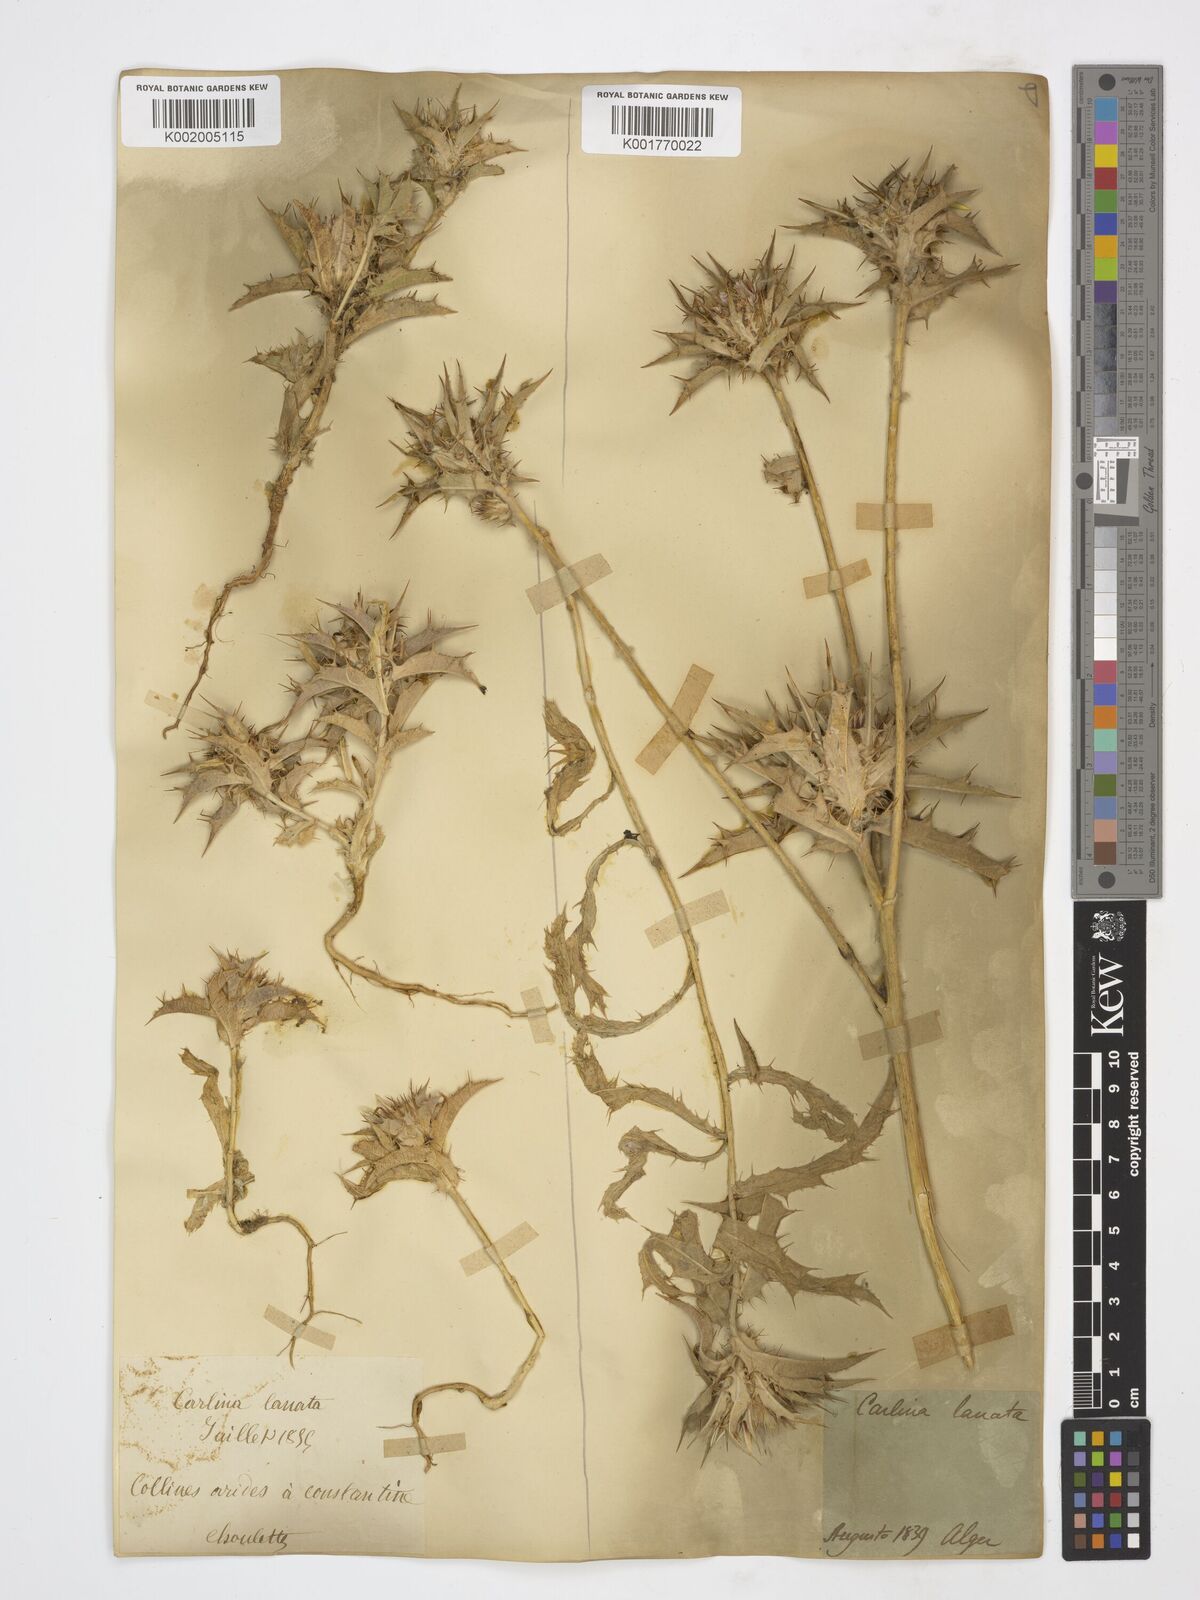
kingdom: Plantae
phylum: Tracheophyta
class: Magnoliopsida
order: Asterales
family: Asteraceae
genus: Carlina
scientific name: Carlina lanata
